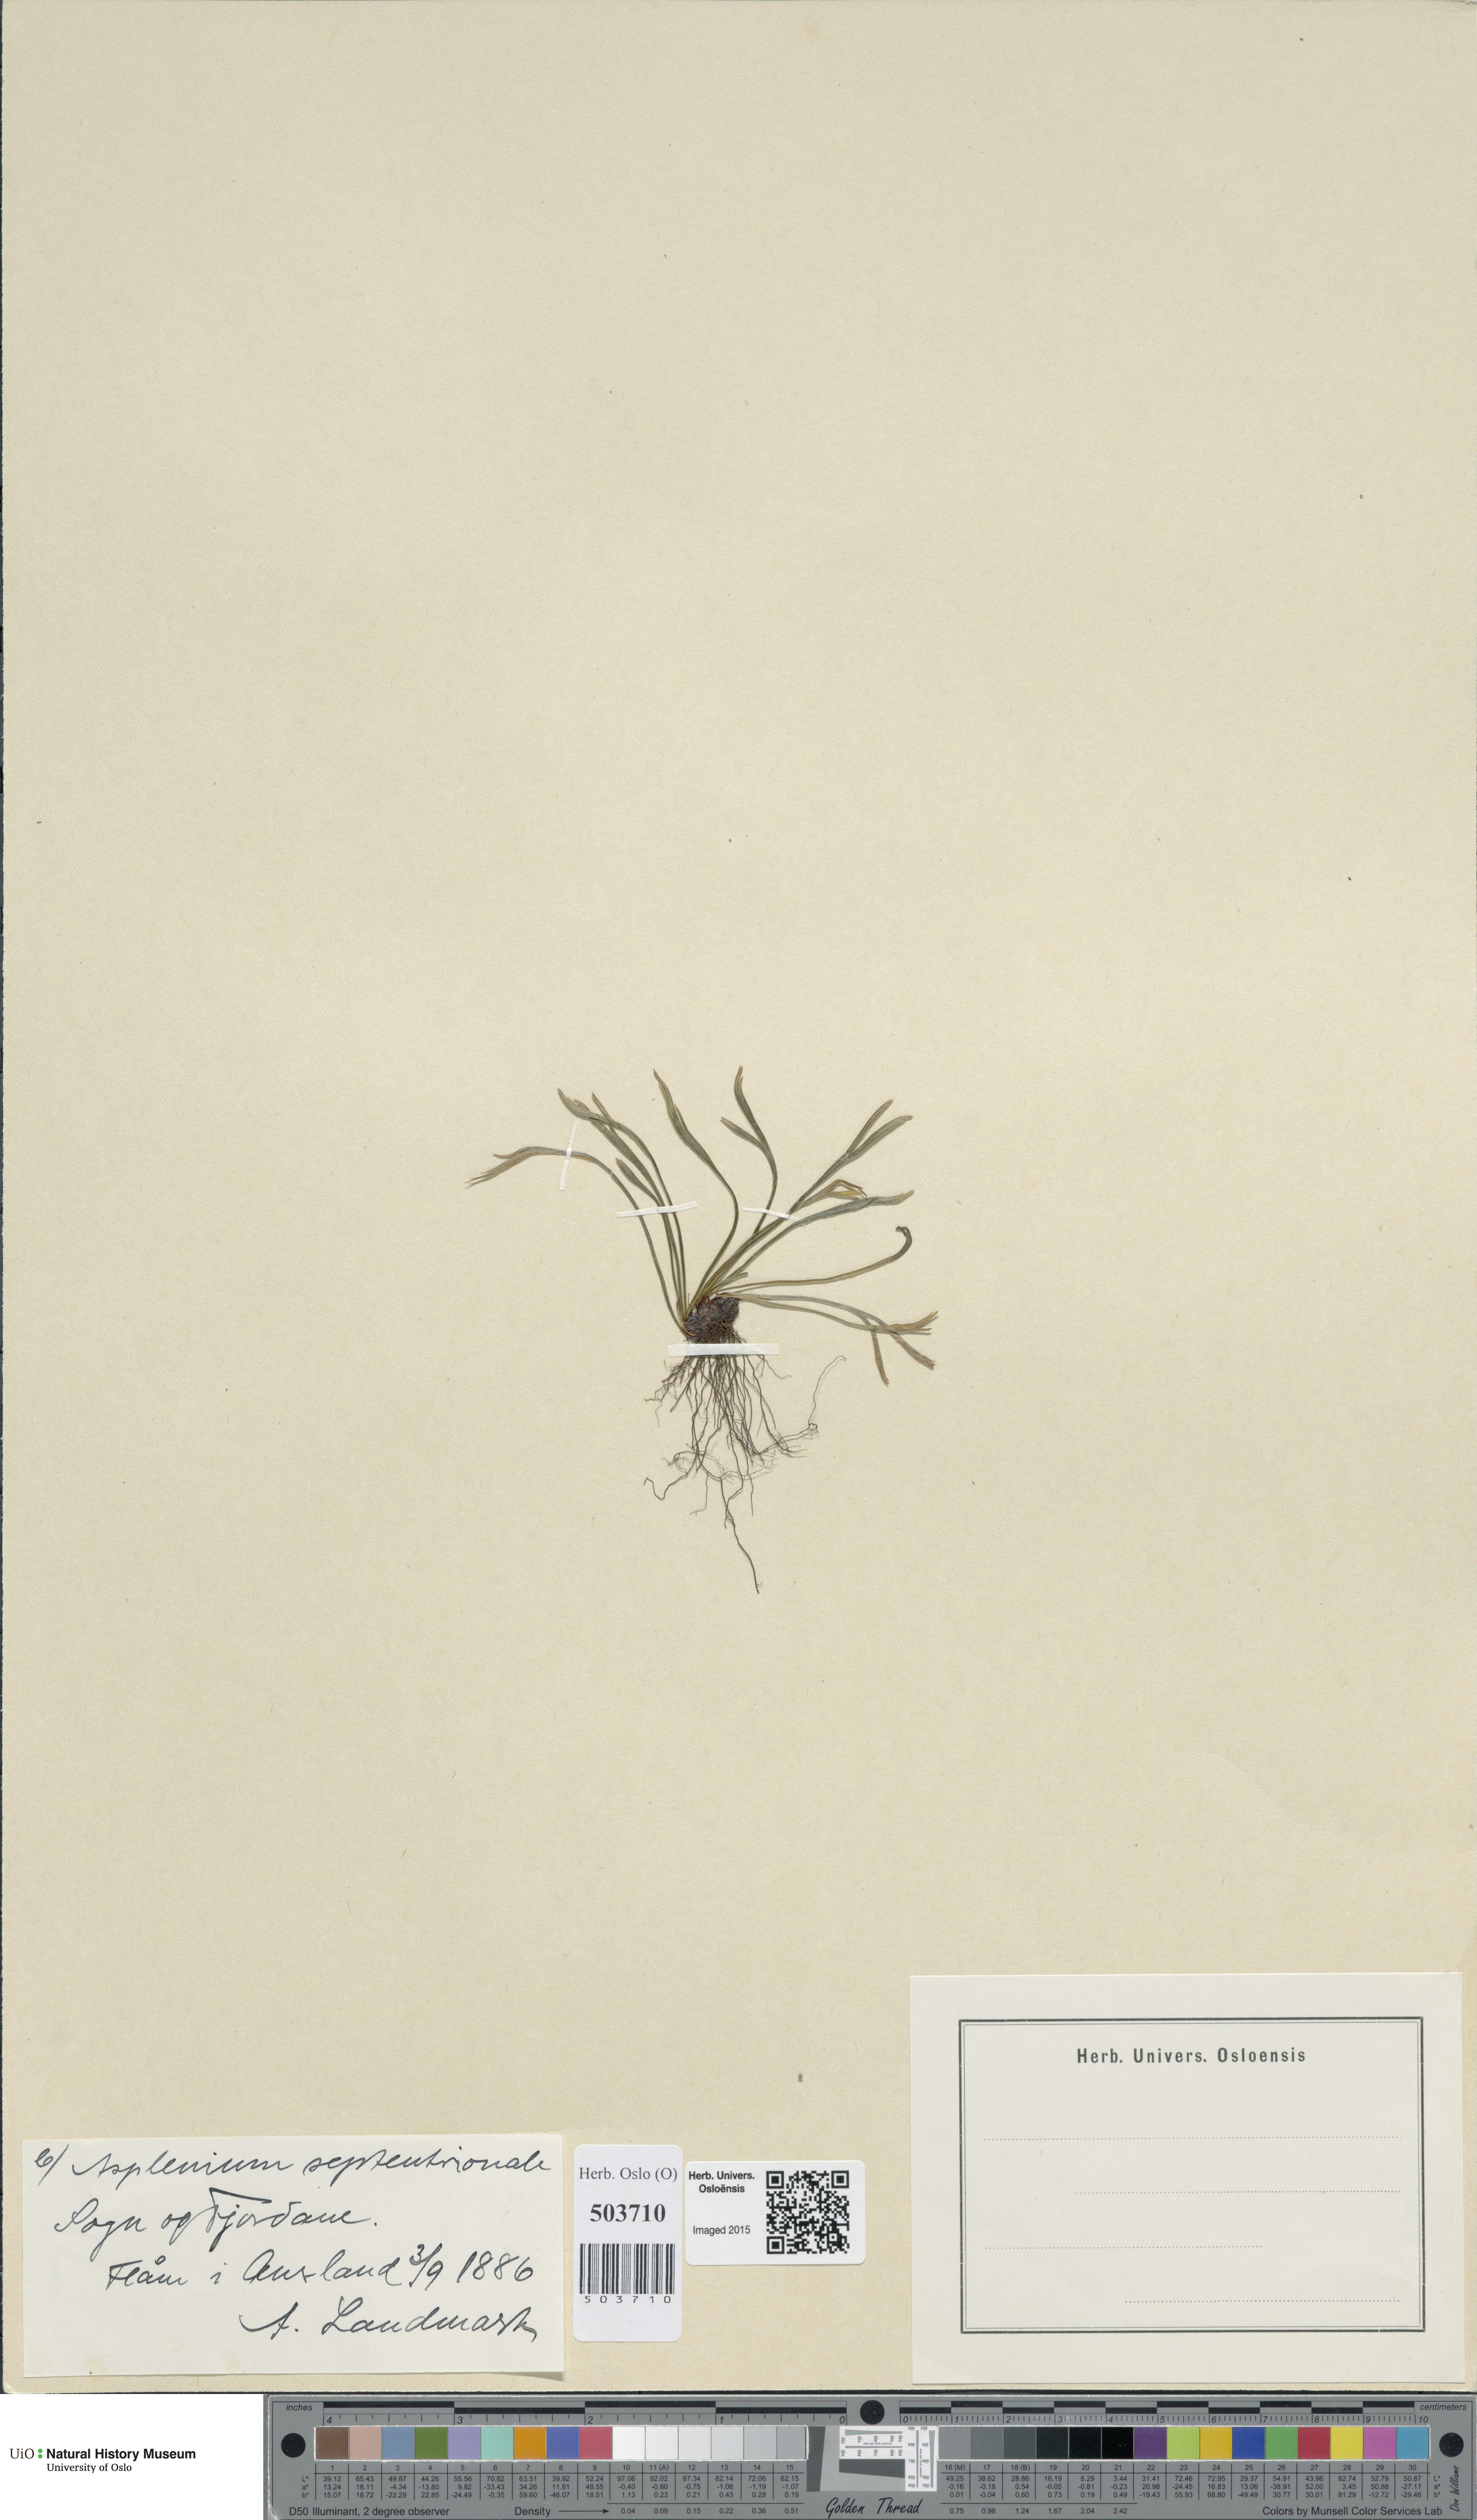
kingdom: Plantae
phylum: Tracheophyta
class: Polypodiopsida
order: Polypodiales
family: Aspleniaceae
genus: Asplenium
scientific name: Asplenium septentrionale
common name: Forked spleenwort
